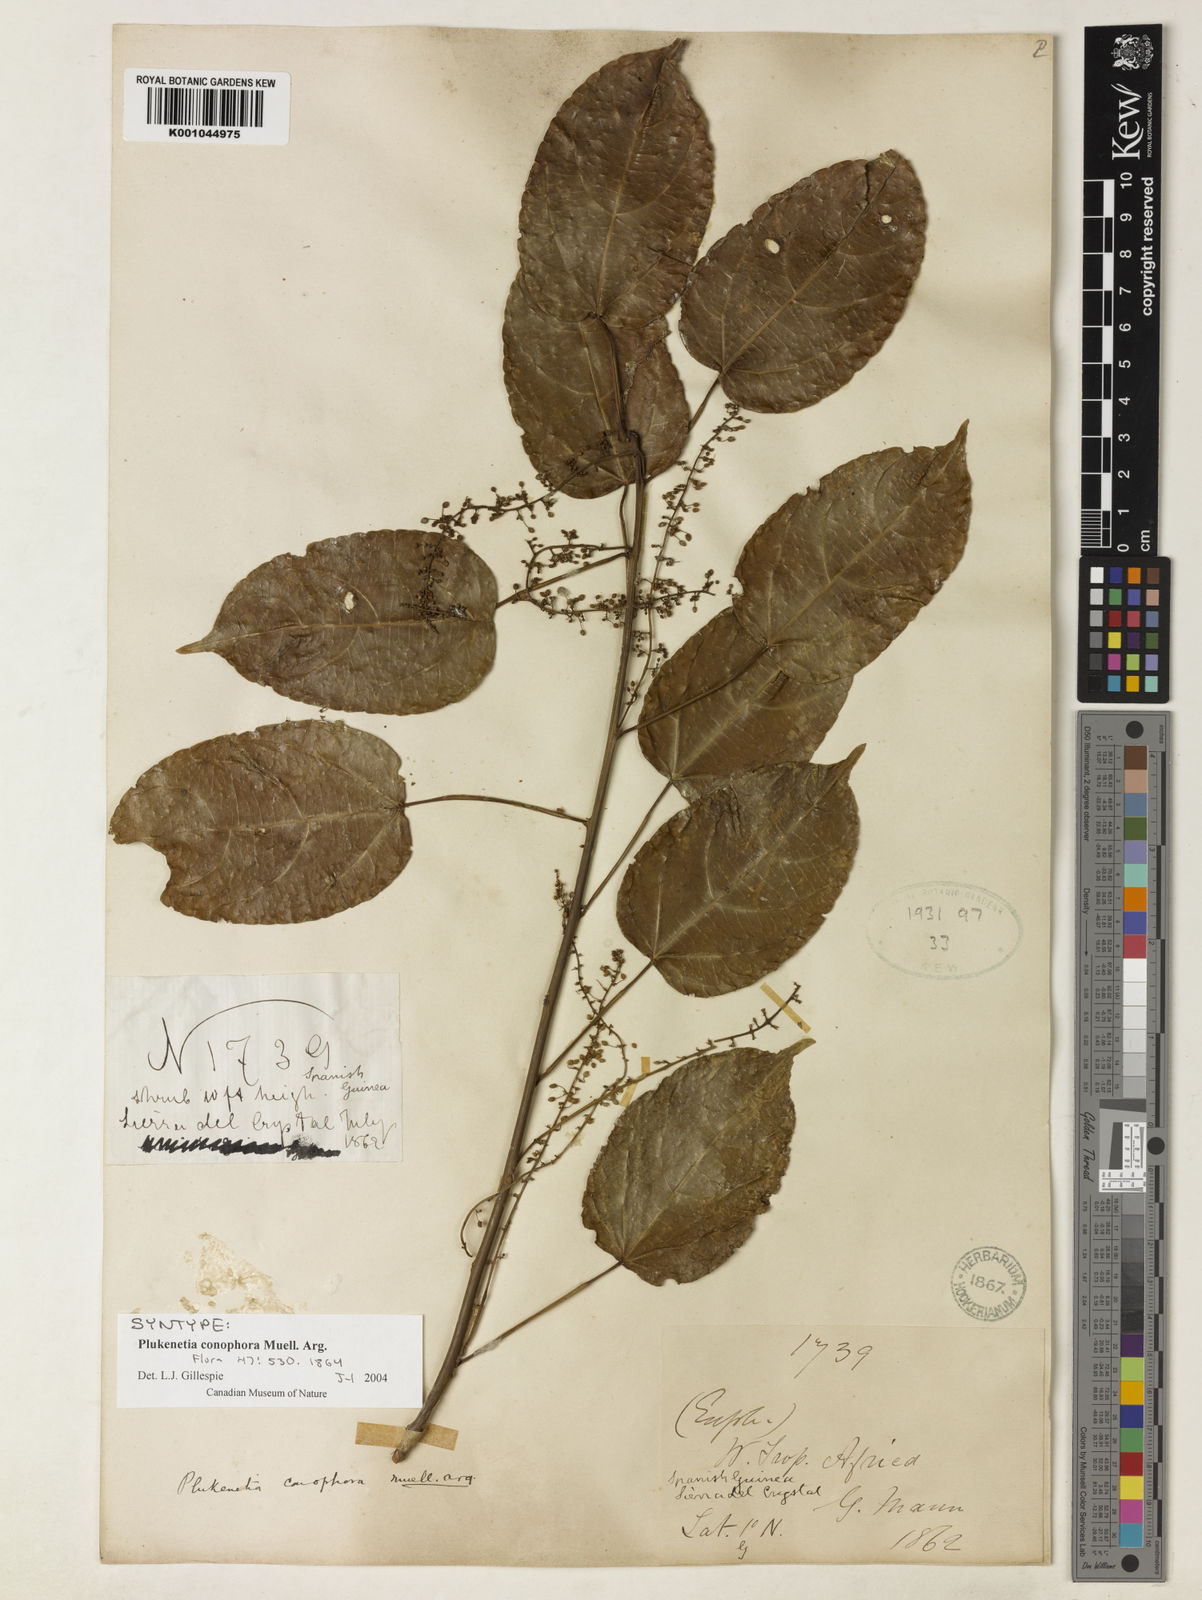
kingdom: Plantae
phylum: Tracheophyta
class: Magnoliopsida
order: Malpighiales
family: Euphorbiaceae
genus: Plukenetia
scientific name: Plukenetia
